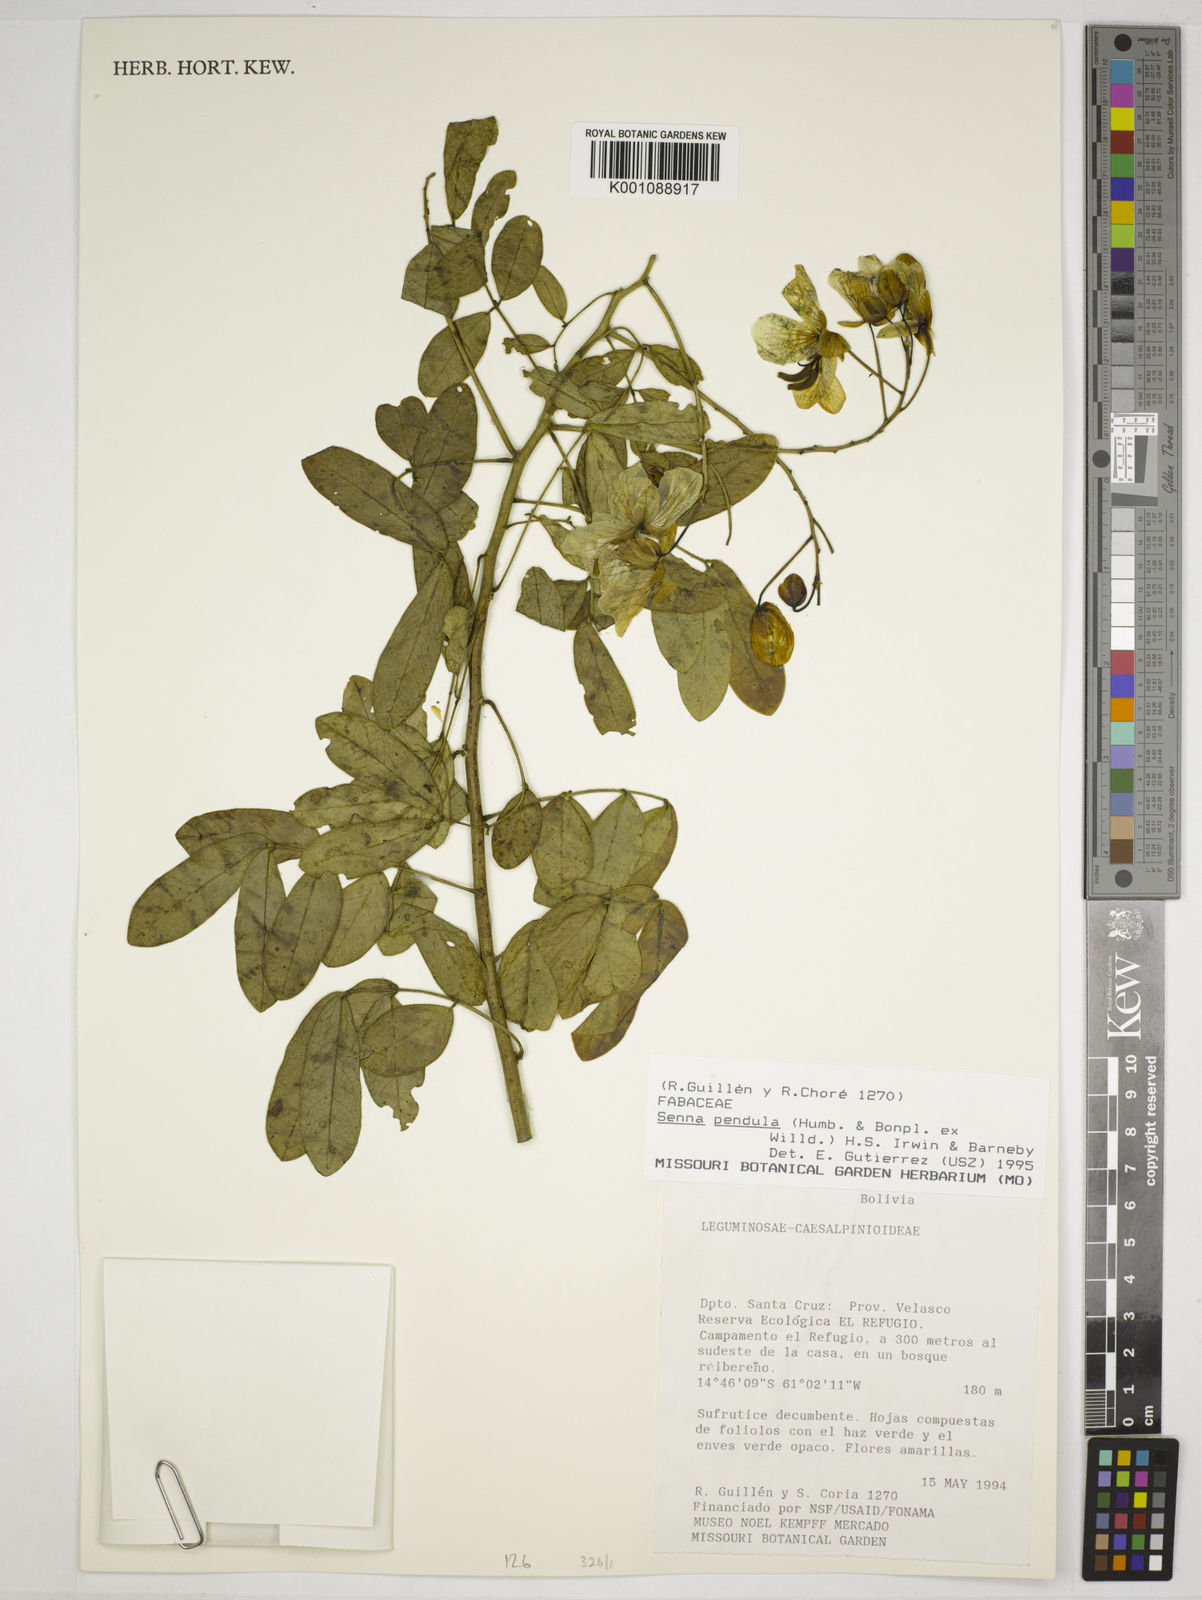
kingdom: Plantae
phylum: Tracheophyta
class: Magnoliopsida
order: Fabales
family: Fabaceae
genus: Senna
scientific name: Senna pendula
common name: Easter cassia
